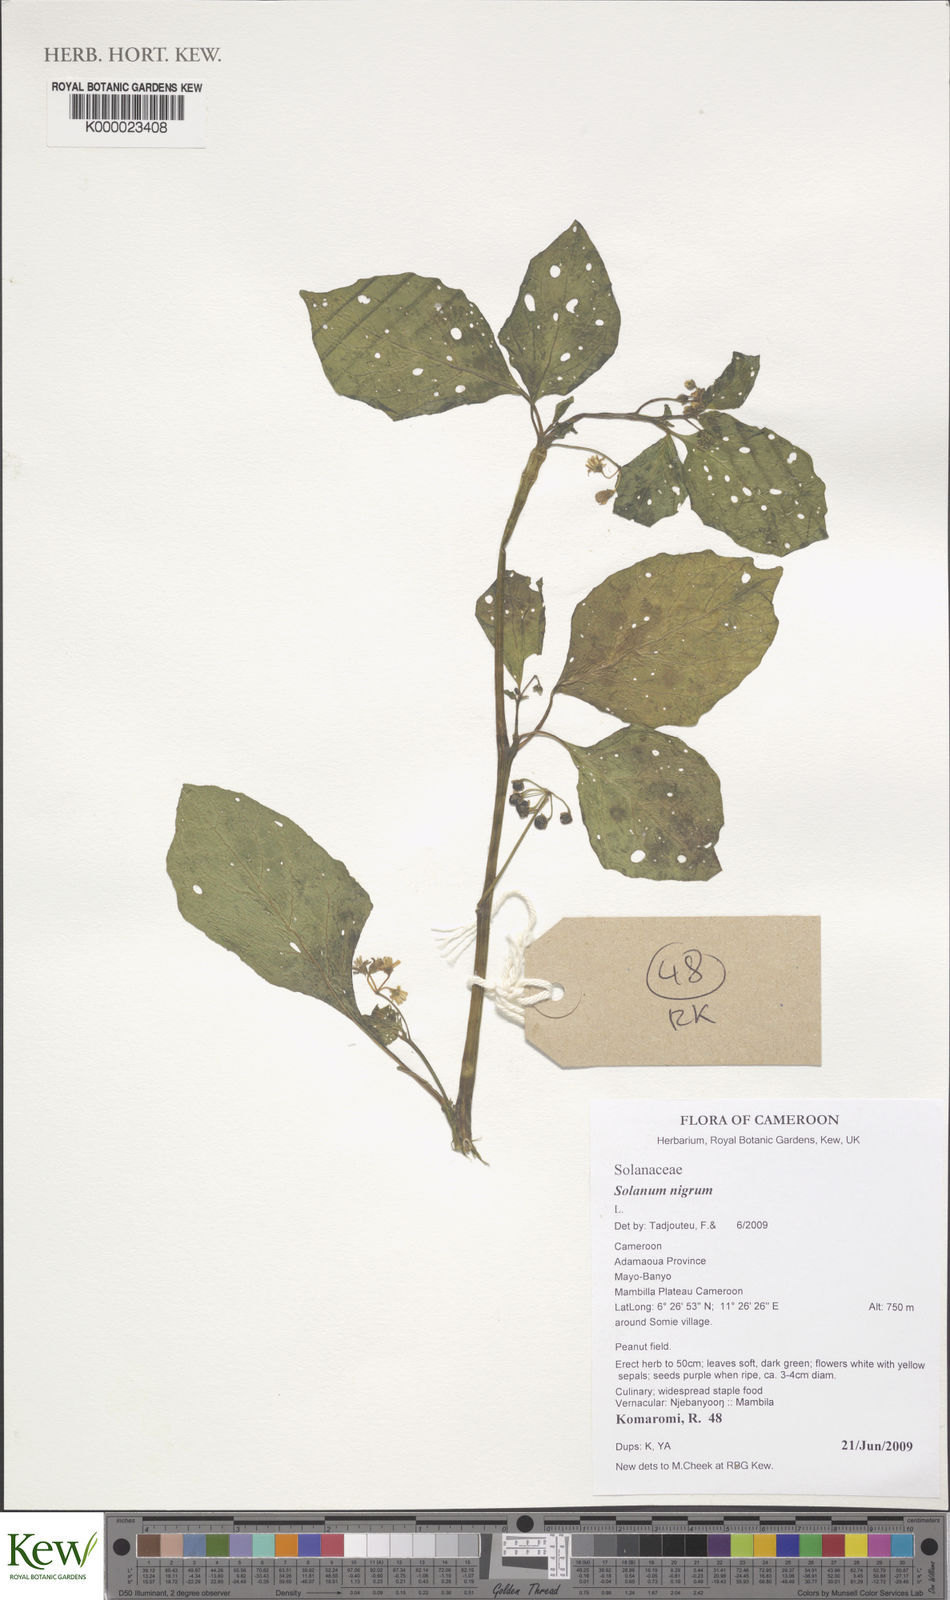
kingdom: Plantae
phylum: Tracheophyta
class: Magnoliopsida
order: Solanales
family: Solanaceae
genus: Solanum
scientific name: Solanum scabrum
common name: Garden-huckleberry
